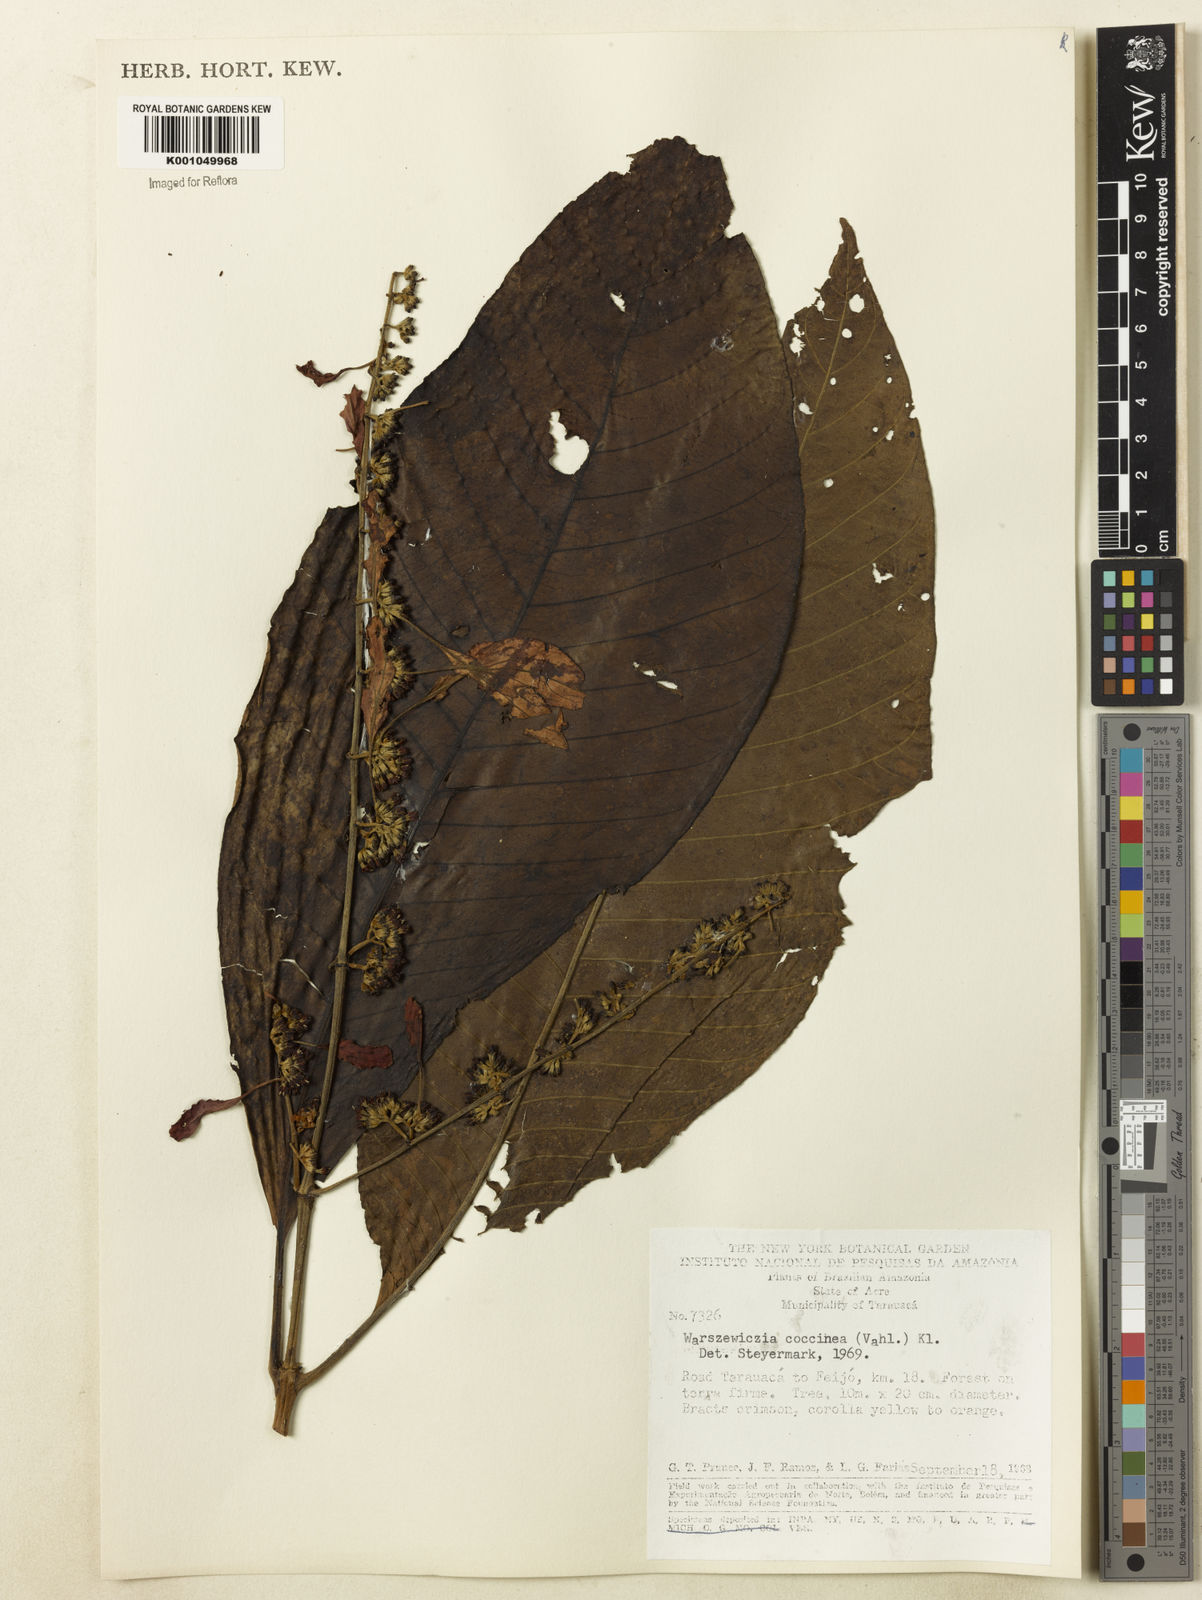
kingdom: Plantae
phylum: Tracheophyta
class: Magnoliopsida
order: Gentianales
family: Rubiaceae
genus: Warszewiczia
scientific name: Warszewiczia coccinea
